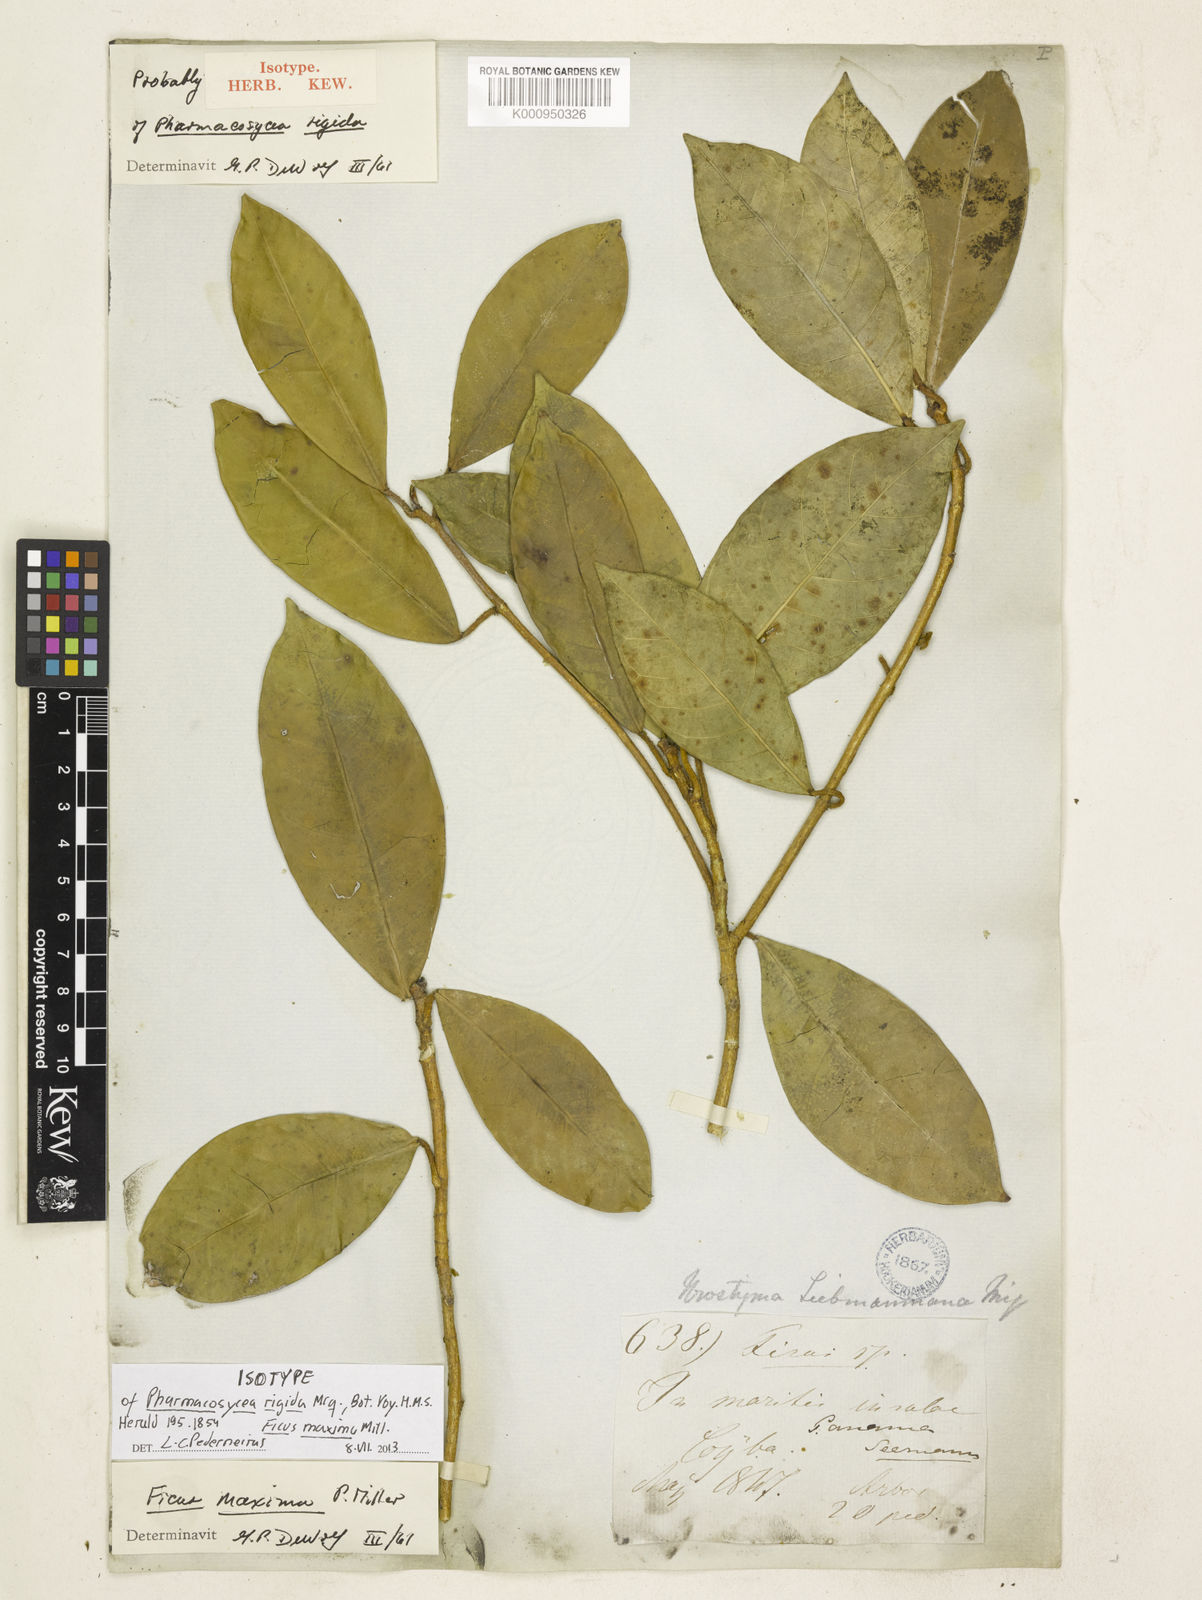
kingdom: Plantae
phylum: Tracheophyta
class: Magnoliopsida
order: Rosales
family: Moraceae
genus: Ficus
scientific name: Ficus maxima
